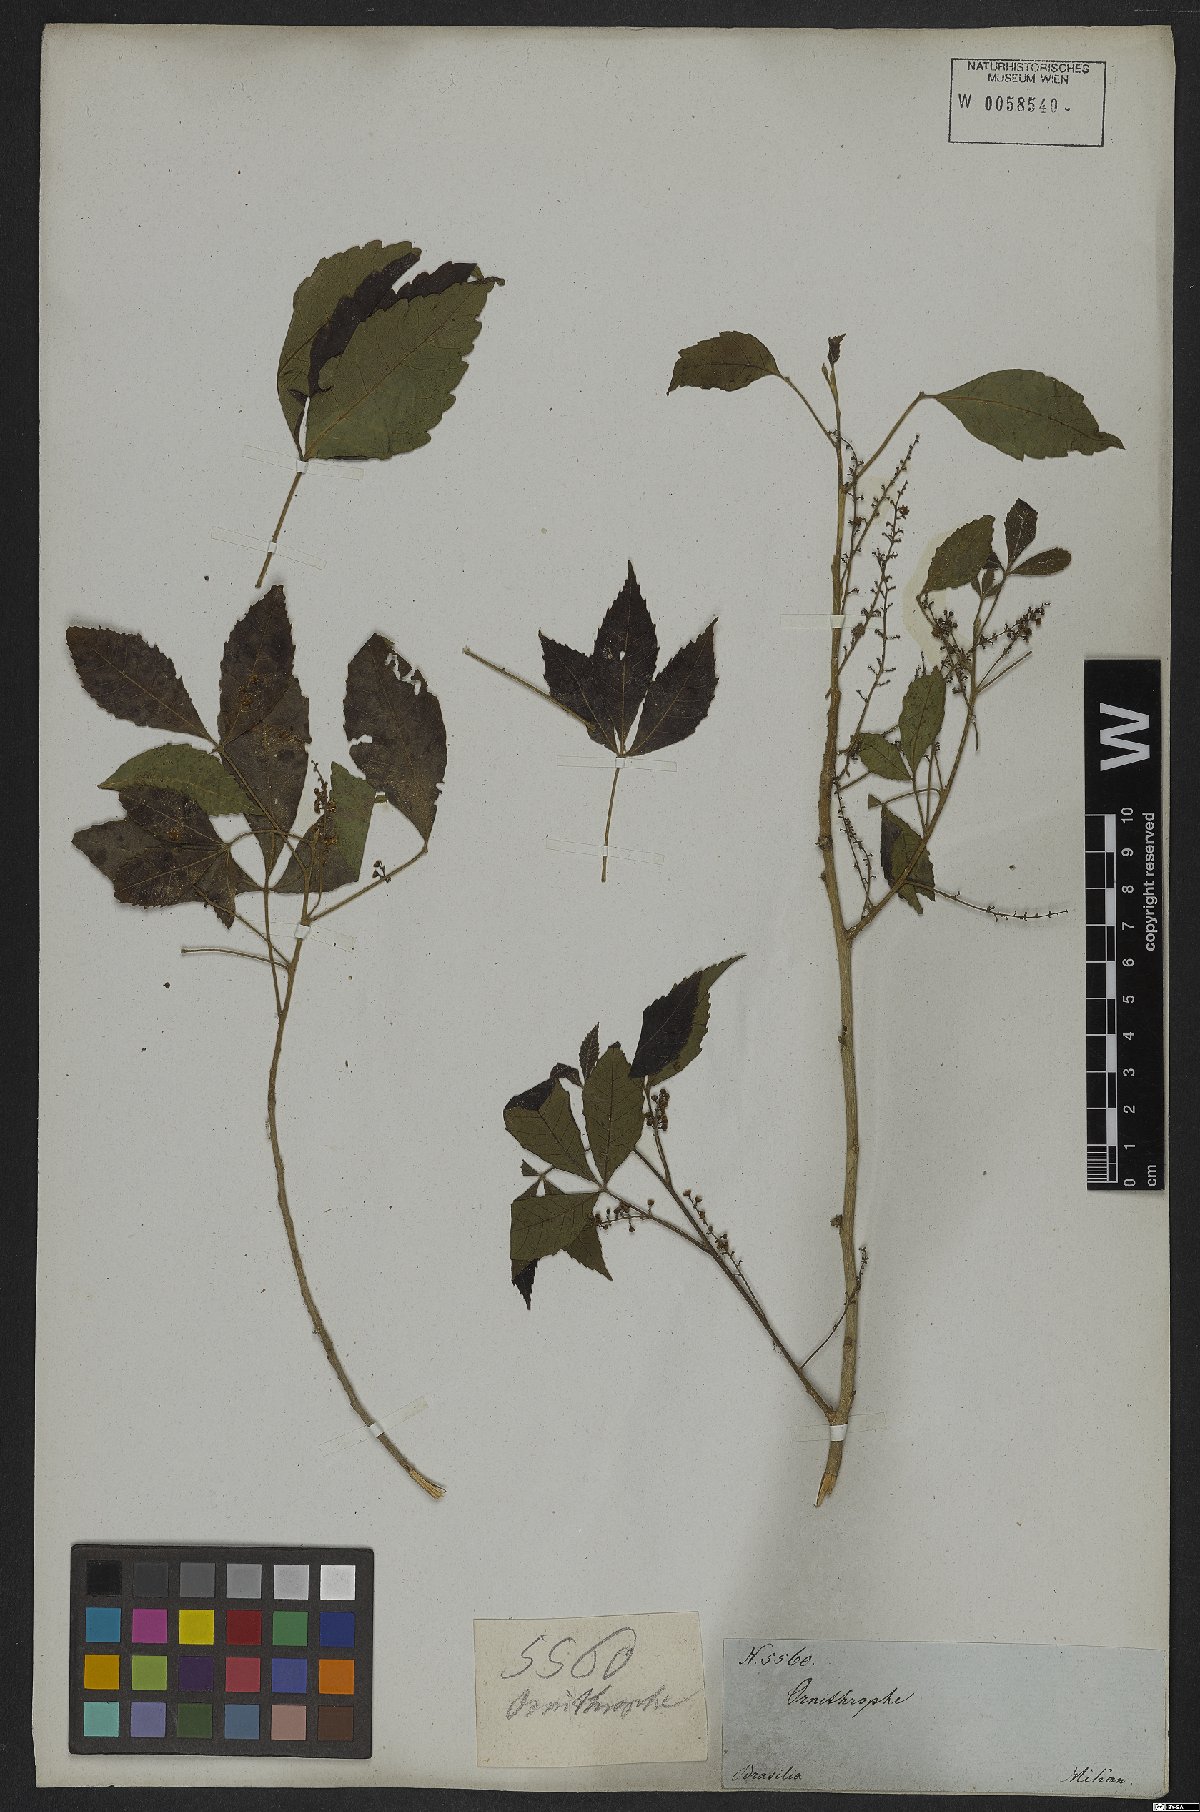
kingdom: Plantae
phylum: Tracheophyta
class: Magnoliopsida
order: Sapindales
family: Sapindaceae
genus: Allophylus
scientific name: Allophylus puberulus
